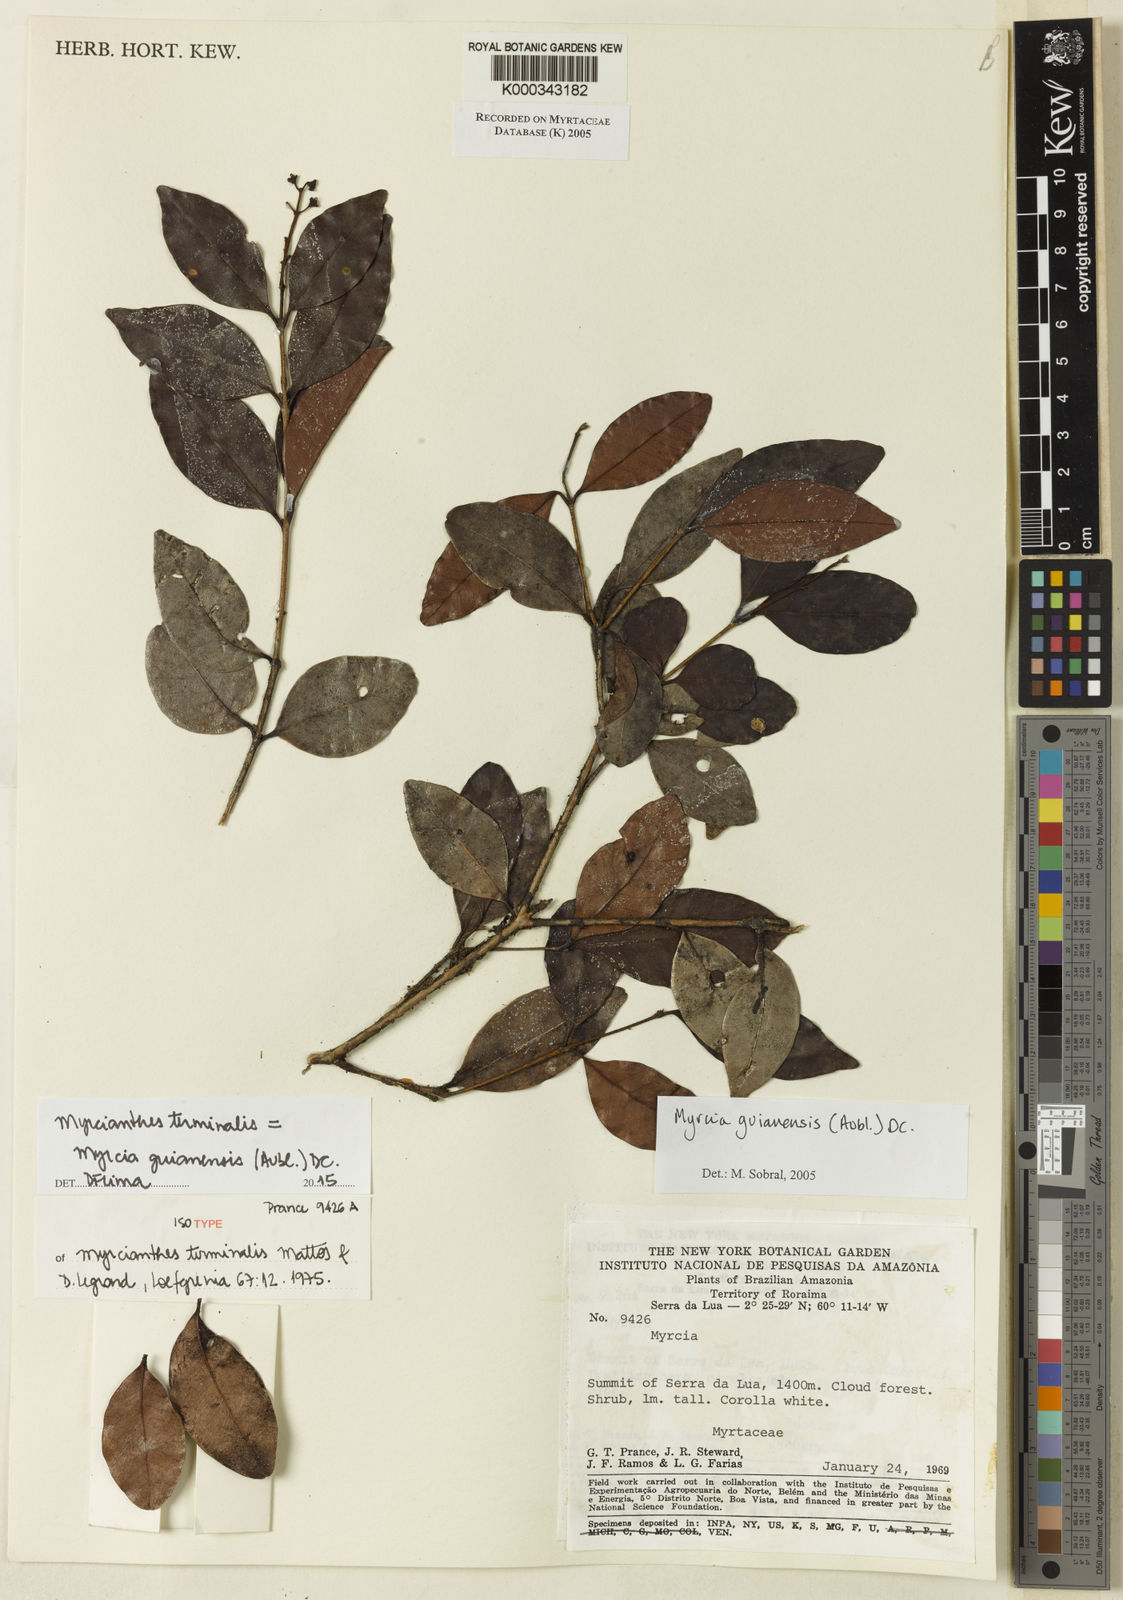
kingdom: Plantae
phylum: Tracheophyta
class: Magnoliopsida
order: Myrtales
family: Myrtaceae
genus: Myrcia
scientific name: Myrcia guianensis
